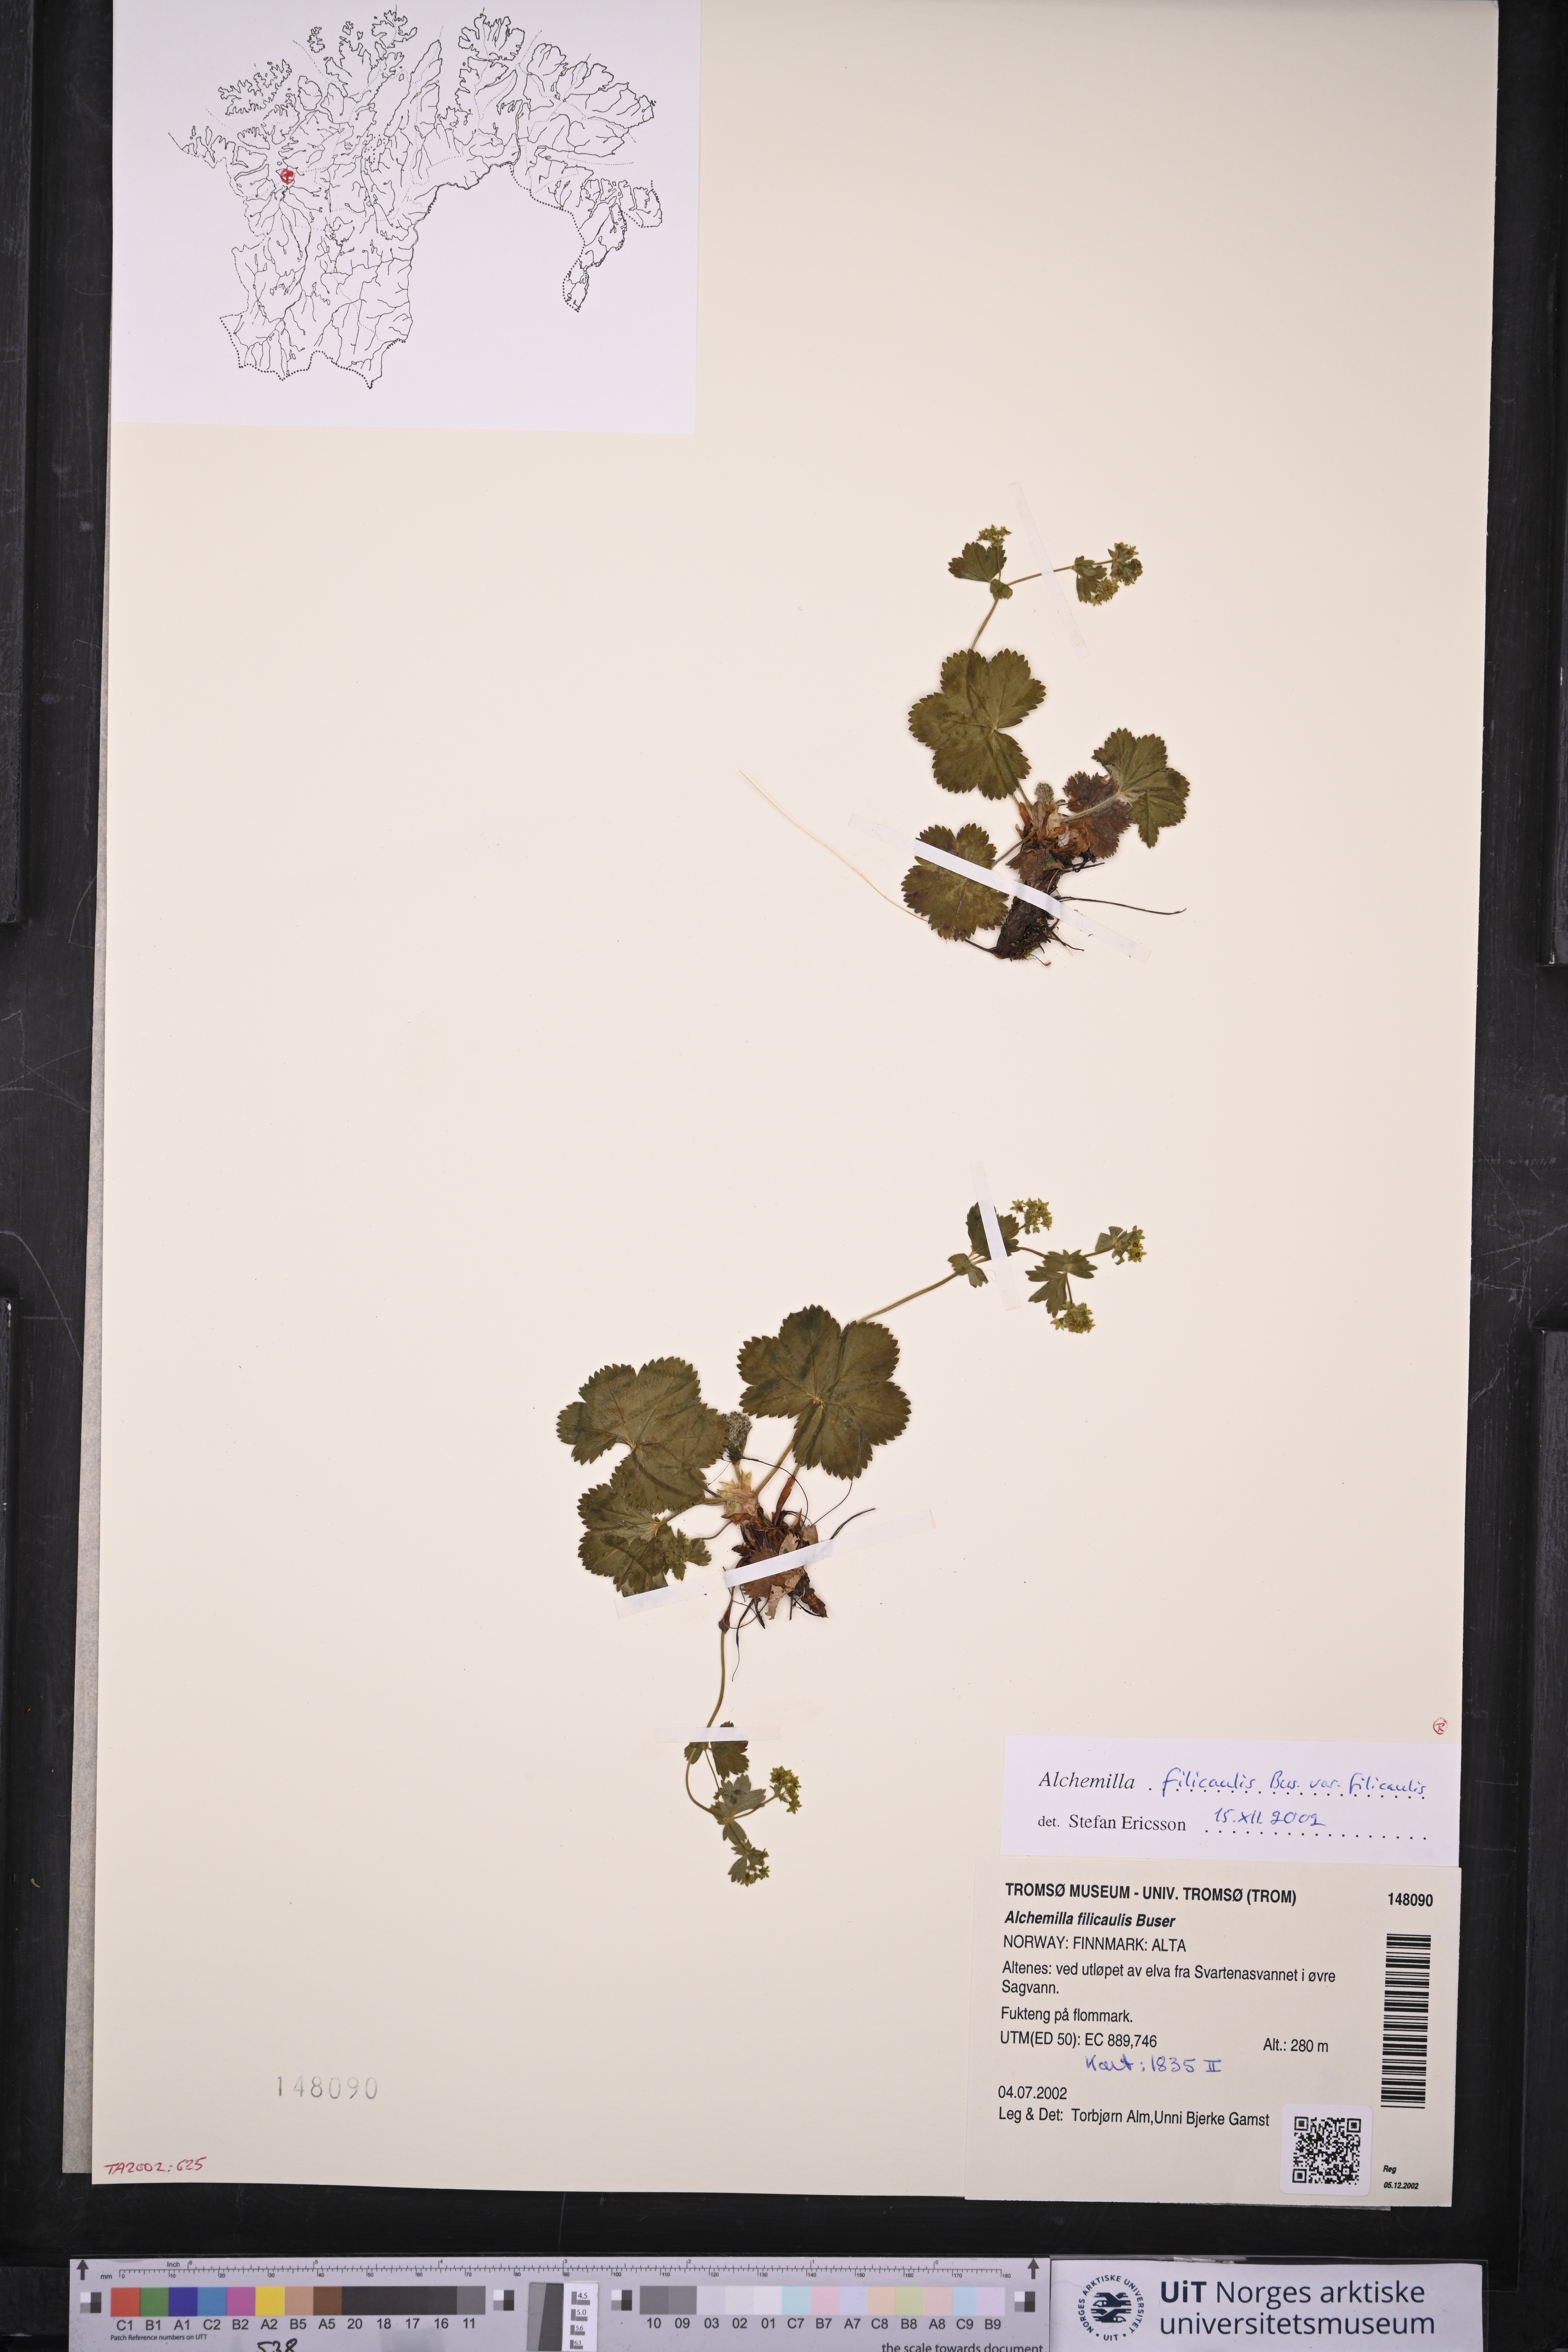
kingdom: Plantae
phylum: Tracheophyta
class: Magnoliopsida
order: Rosales
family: Rosaceae
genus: Alchemilla
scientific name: Alchemilla filicaulis
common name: Hairy lady's-mantle
